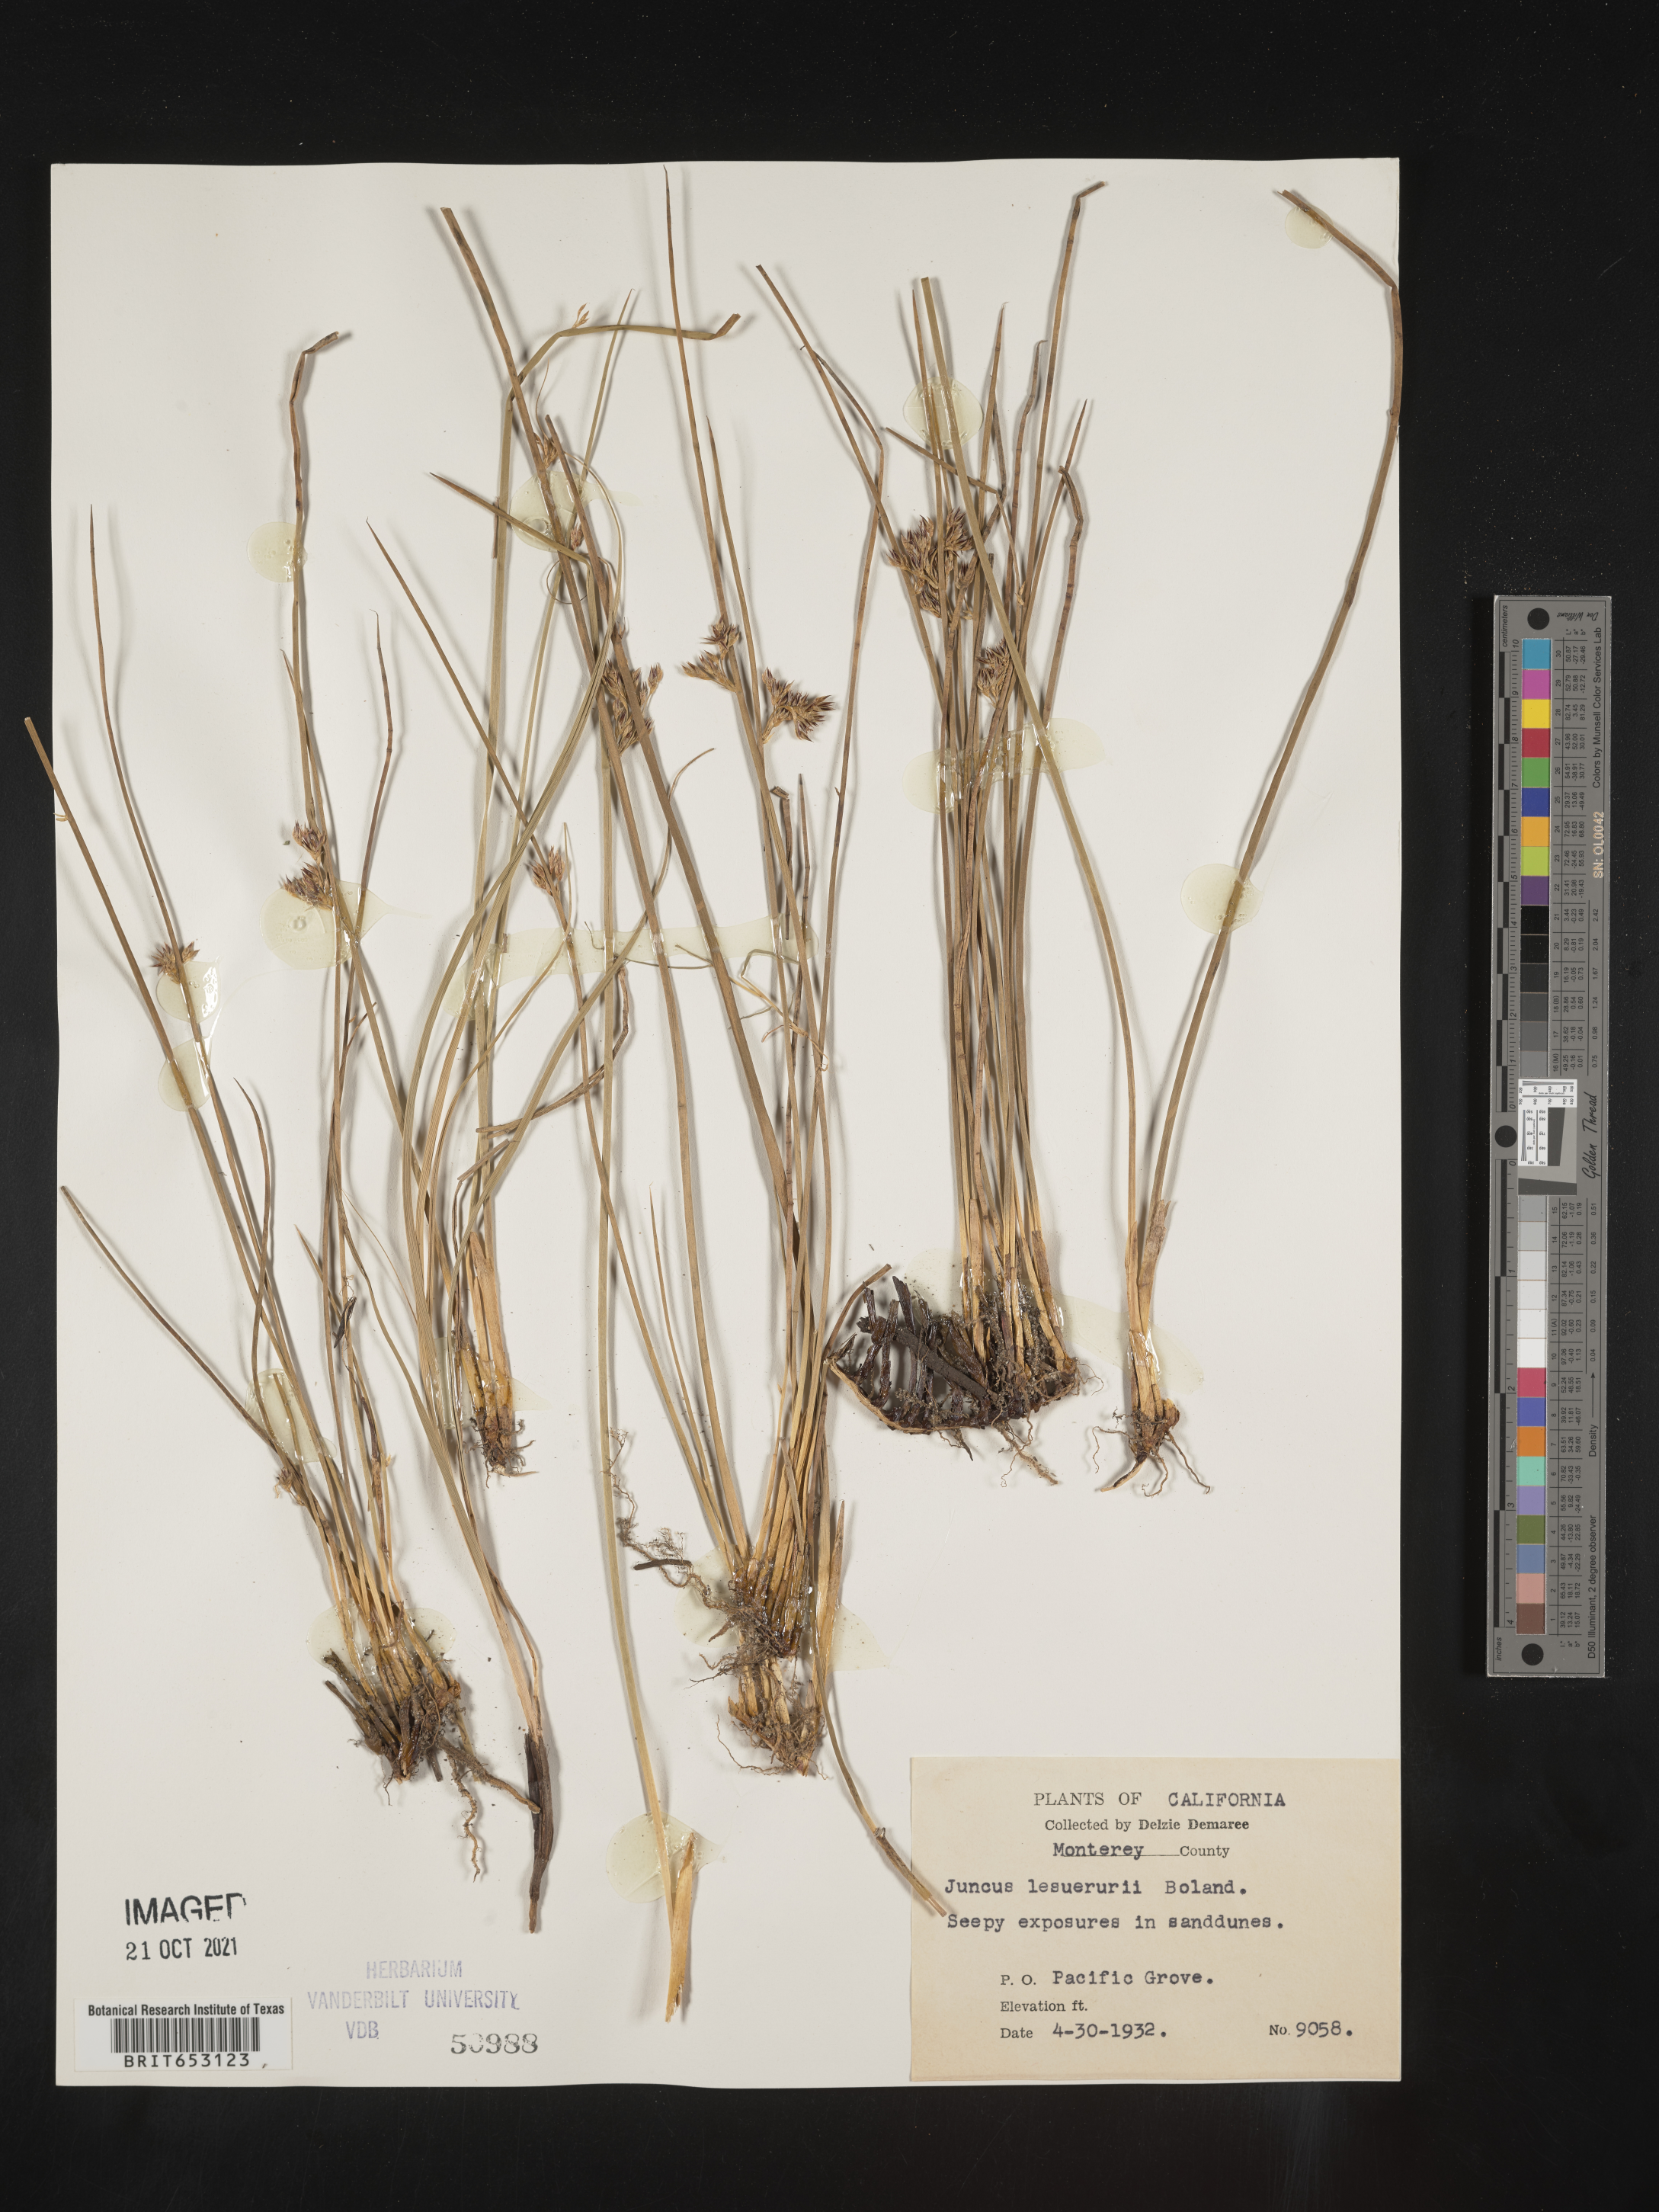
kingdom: Plantae
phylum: Tracheophyta
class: Liliopsida
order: Poales
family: Juncaceae
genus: Juncus
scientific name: Juncus lesueurii
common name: Lesueur's rush
